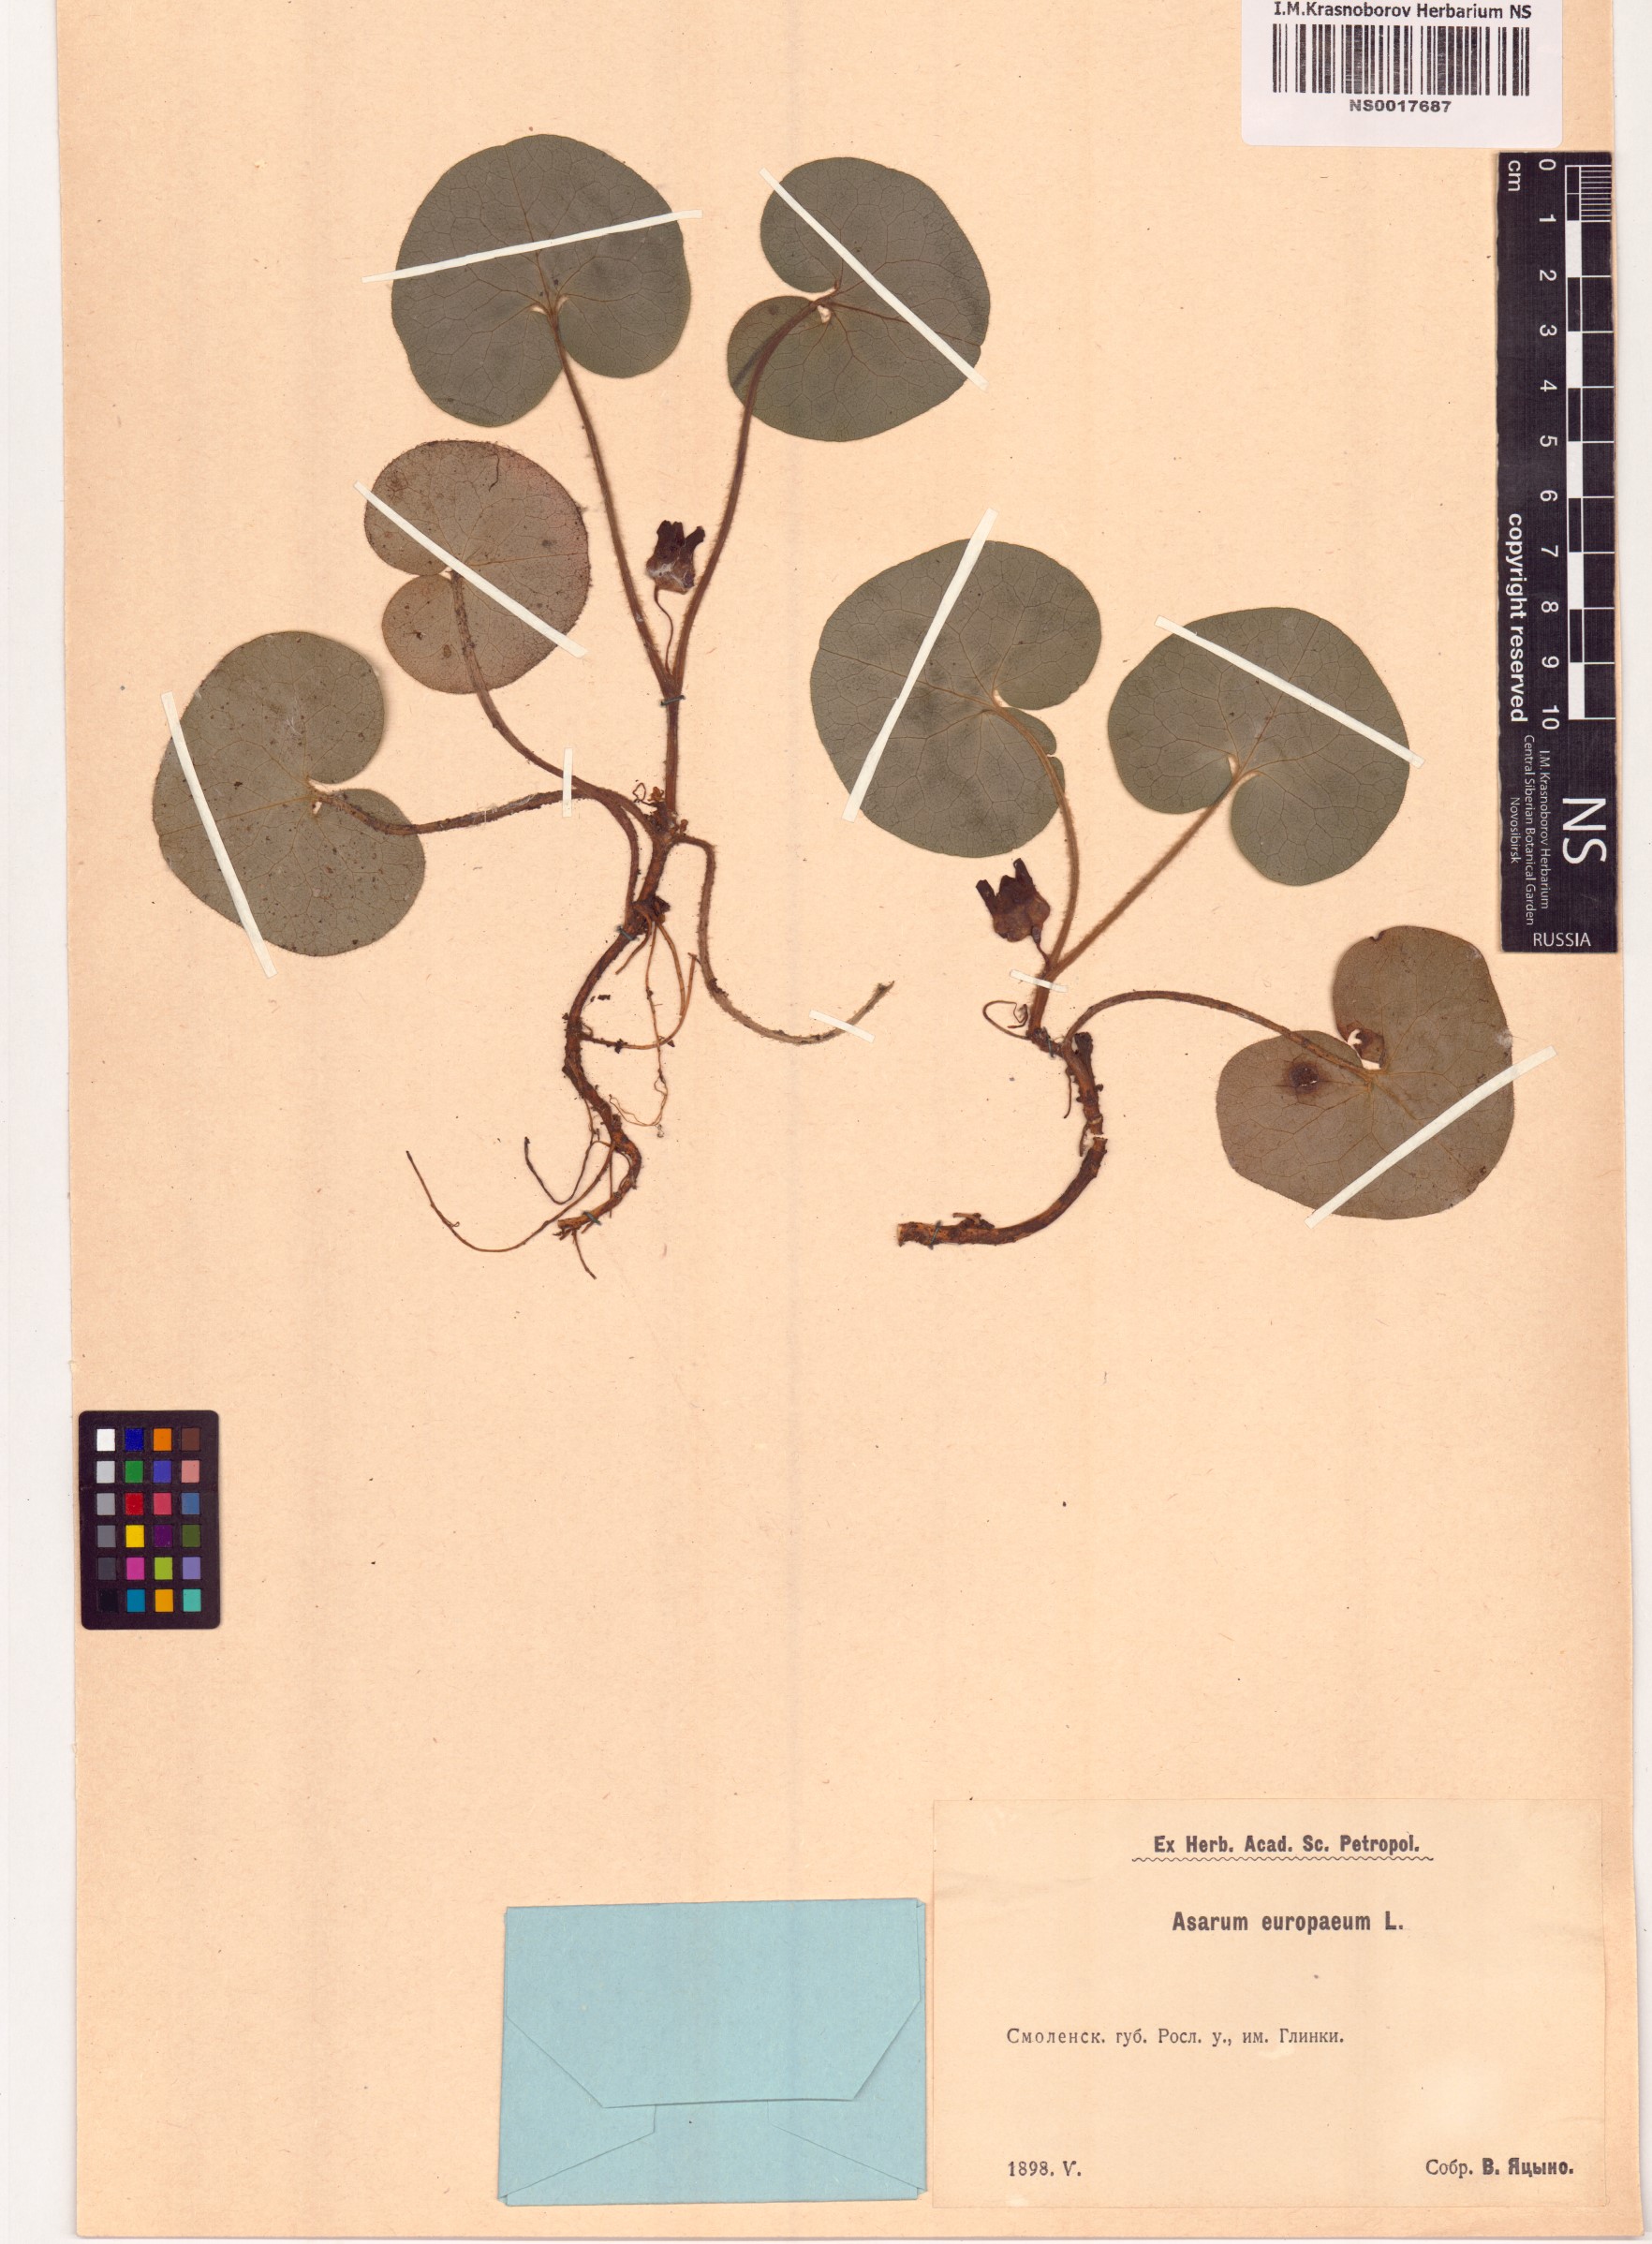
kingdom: Plantae
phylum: Tracheophyta
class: Magnoliopsida
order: Piperales
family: Aristolochiaceae
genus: Asarum
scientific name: Asarum europaeum
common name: Asarabacca
